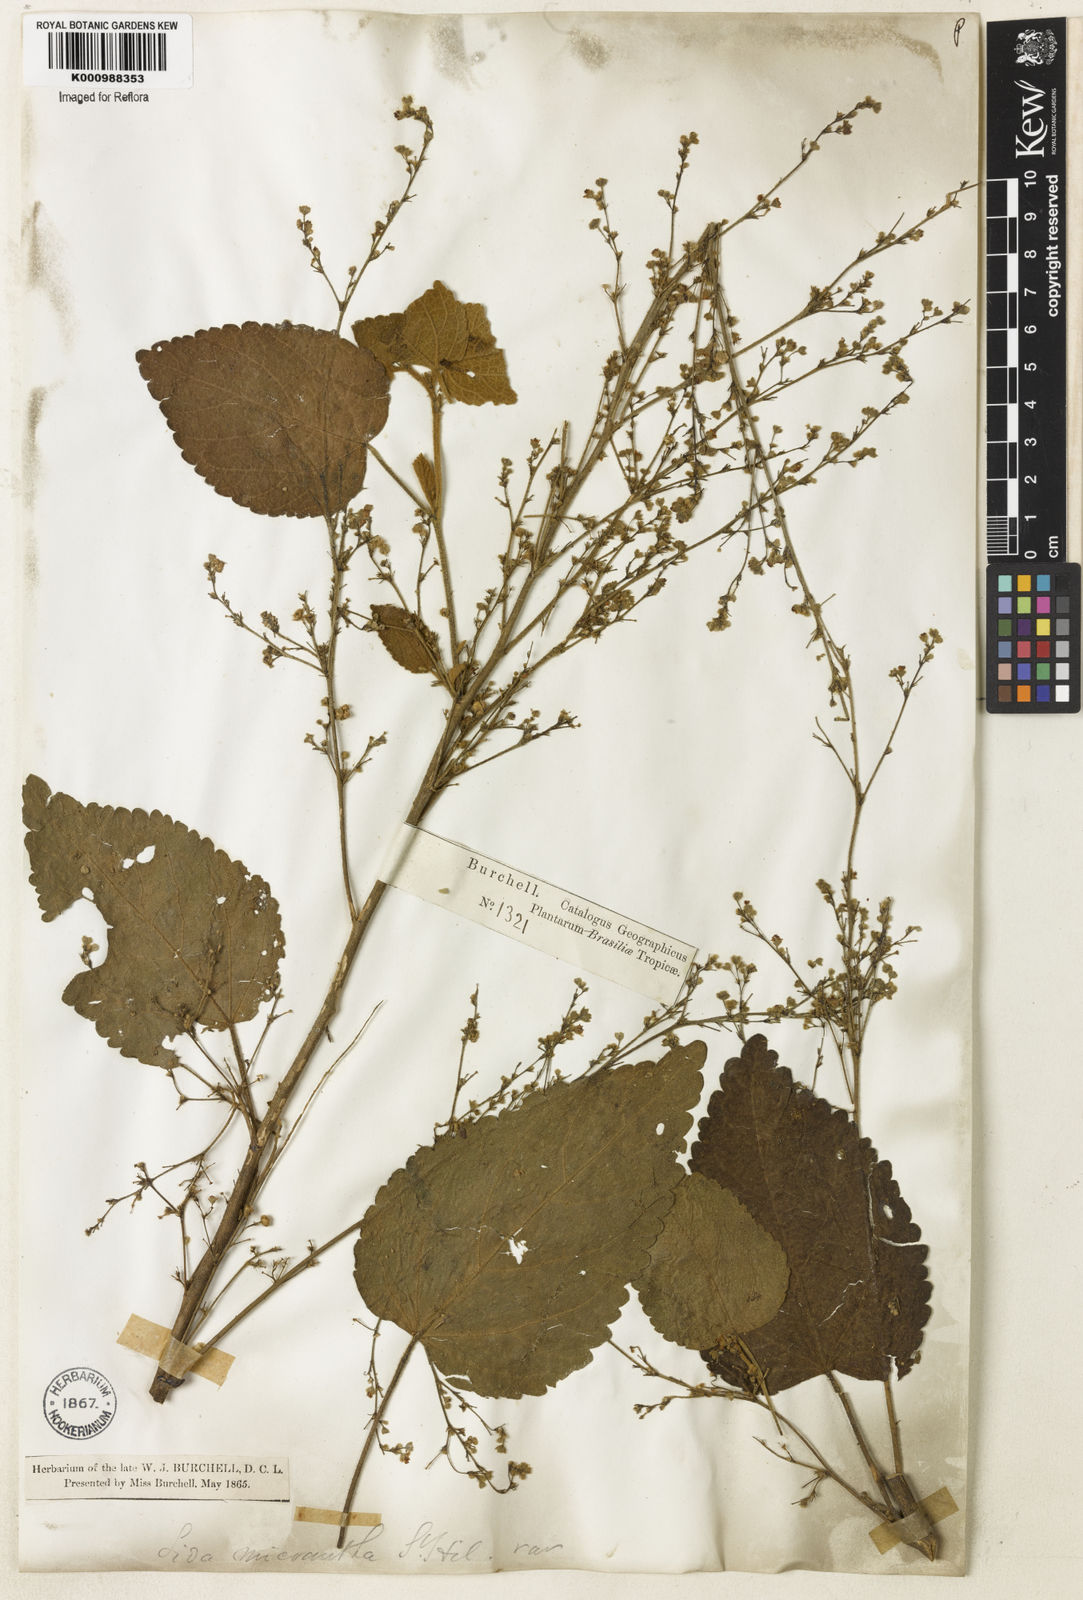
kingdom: Plantae
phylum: Tracheophyta
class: Magnoliopsida
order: Malvales
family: Malvaceae
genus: Sidastrum
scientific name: Sidastrum micranthum
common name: Dainty sandmallow
